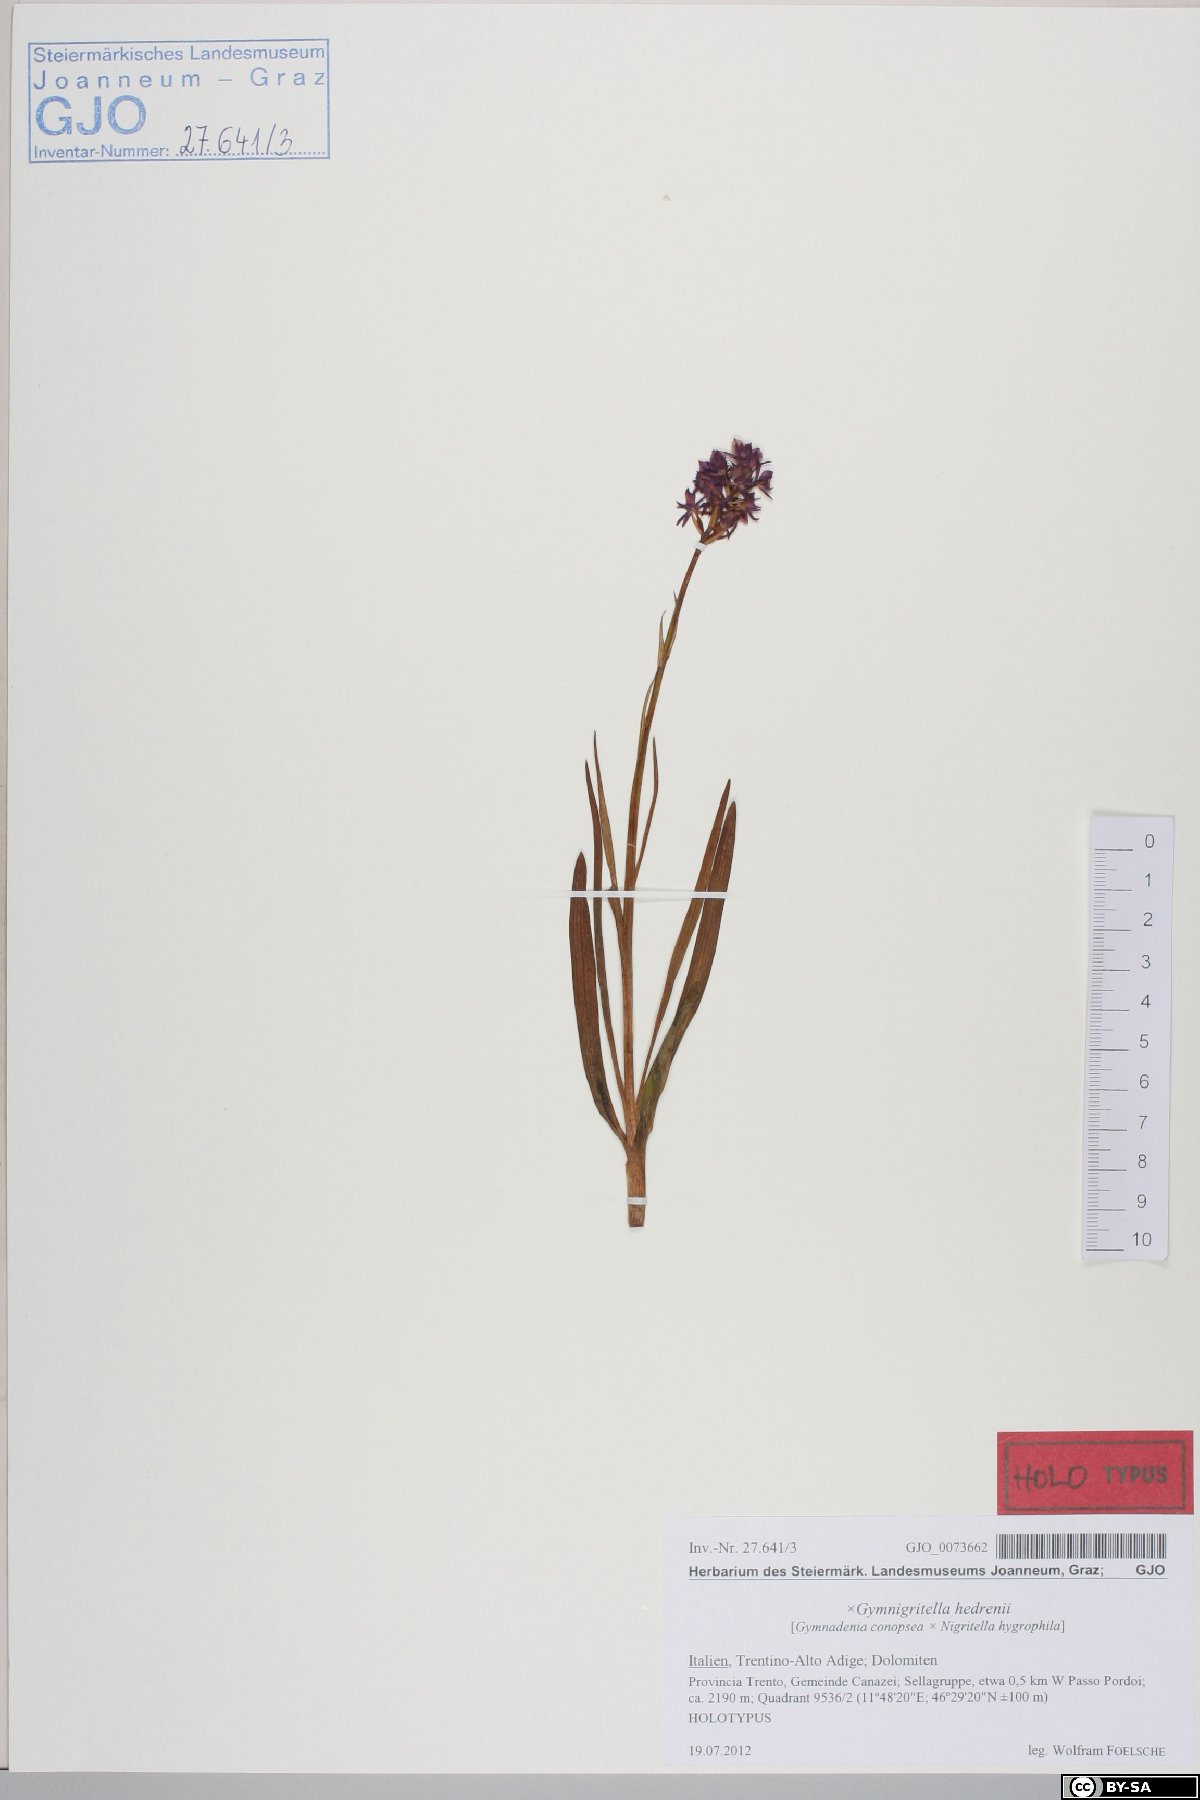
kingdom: Plantae
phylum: Tracheophyta
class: Liliopsida
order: Asparagales
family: Orchidaceae
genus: Gymnadenia
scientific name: Gymnadenia hedrenii
